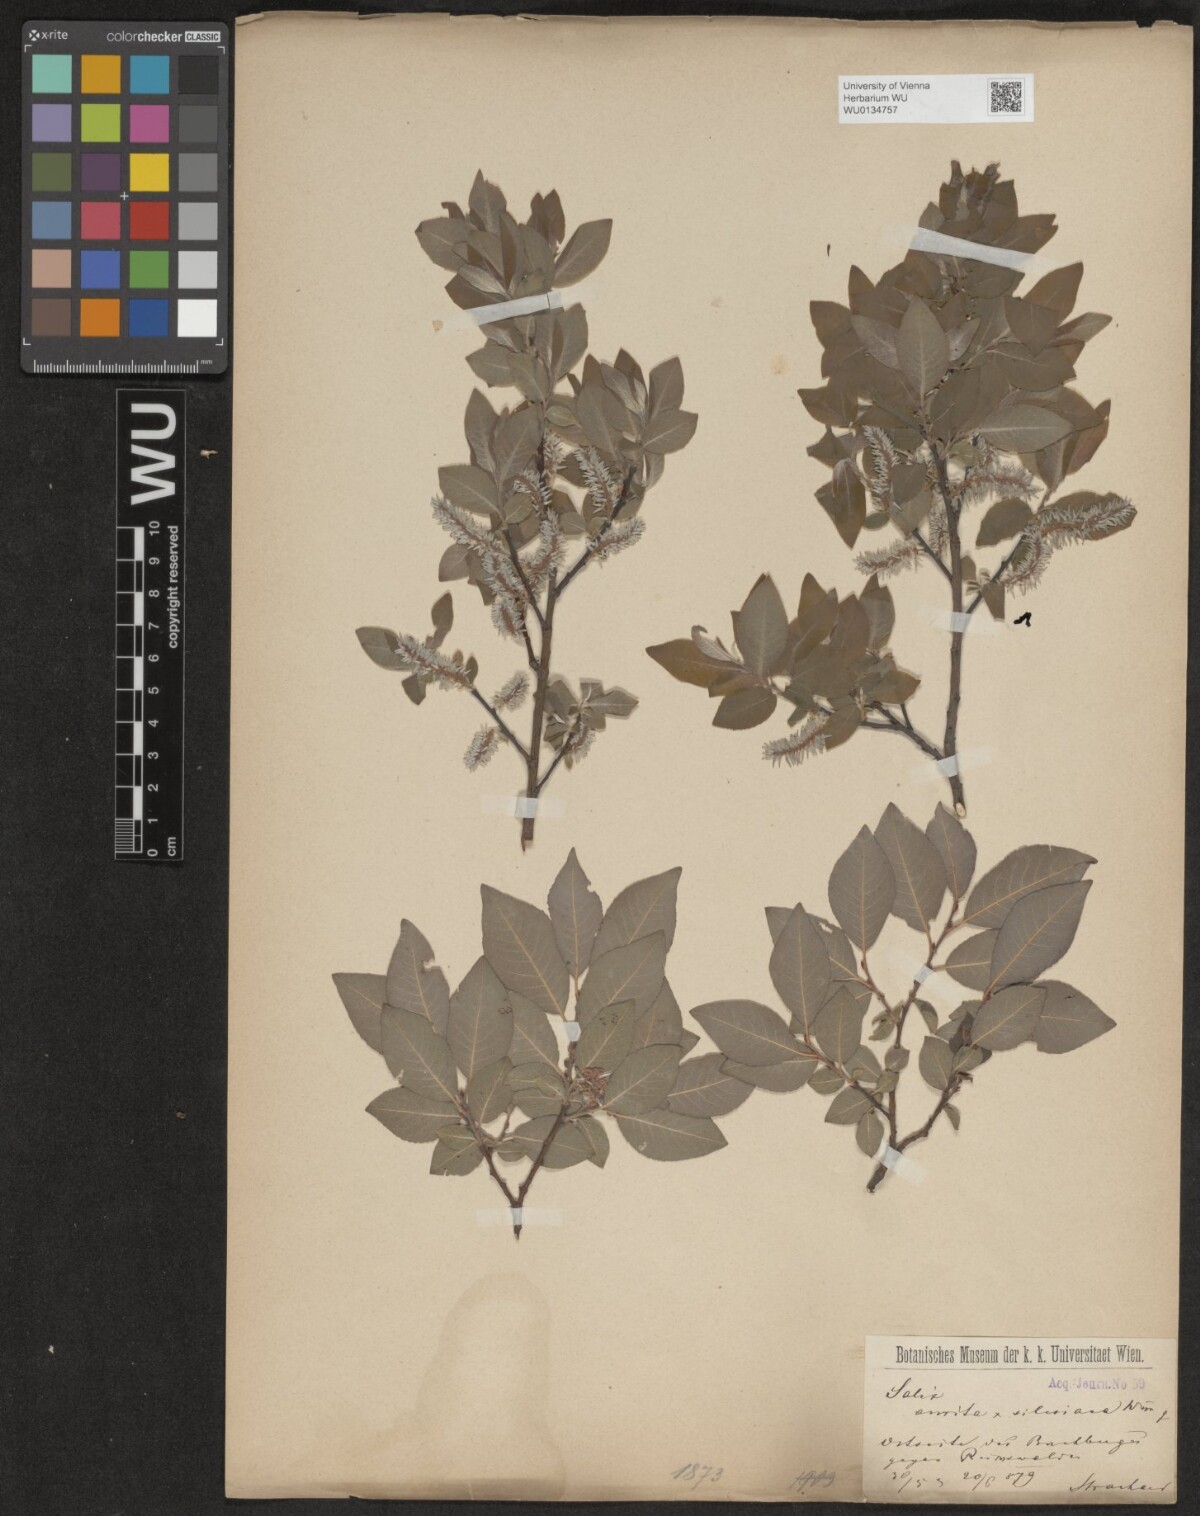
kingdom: Plantae
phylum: Tracheophyta
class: Magnoliopsida
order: Malpighiales
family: Salicaceae
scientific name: Salicaceae
